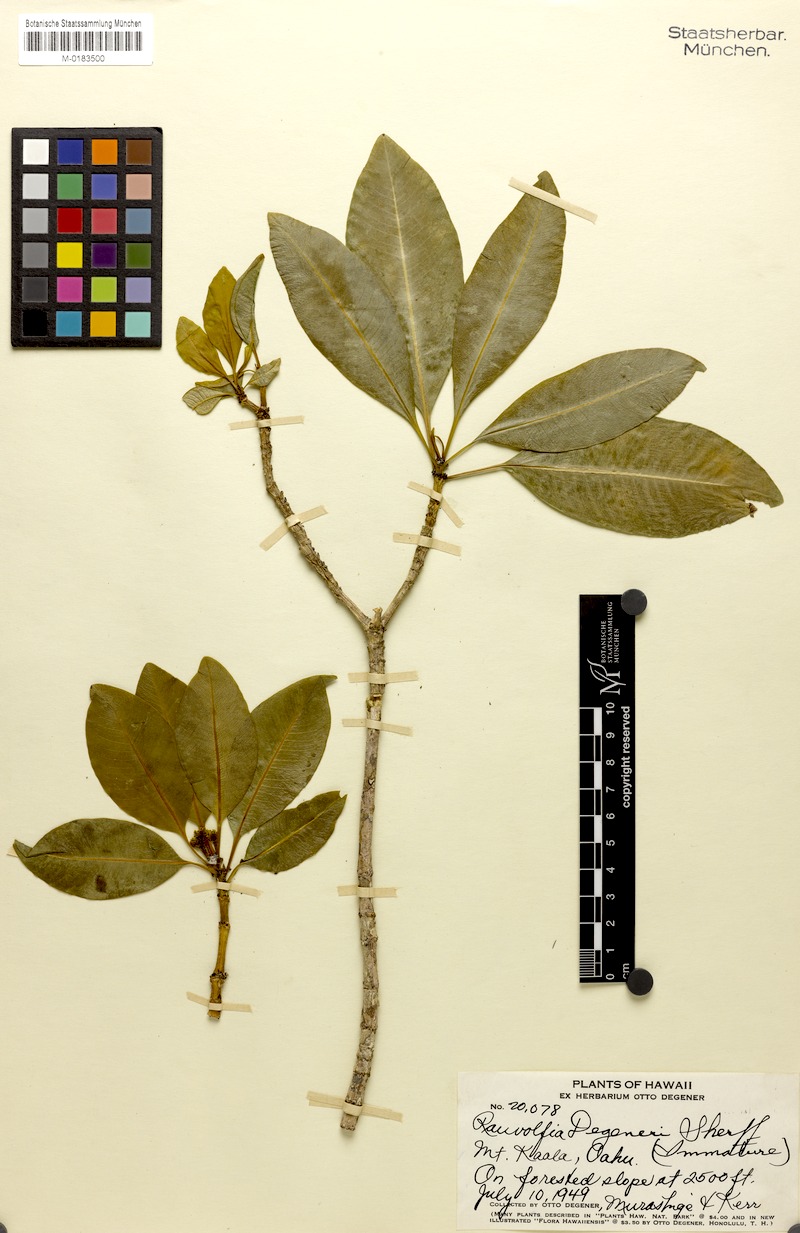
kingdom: Plantae
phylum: Tracheophyta
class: Magnoliopsida
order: Gentianales
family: Apocynaceae
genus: Rauvolfia
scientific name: Rauvolfia sandwicensis
